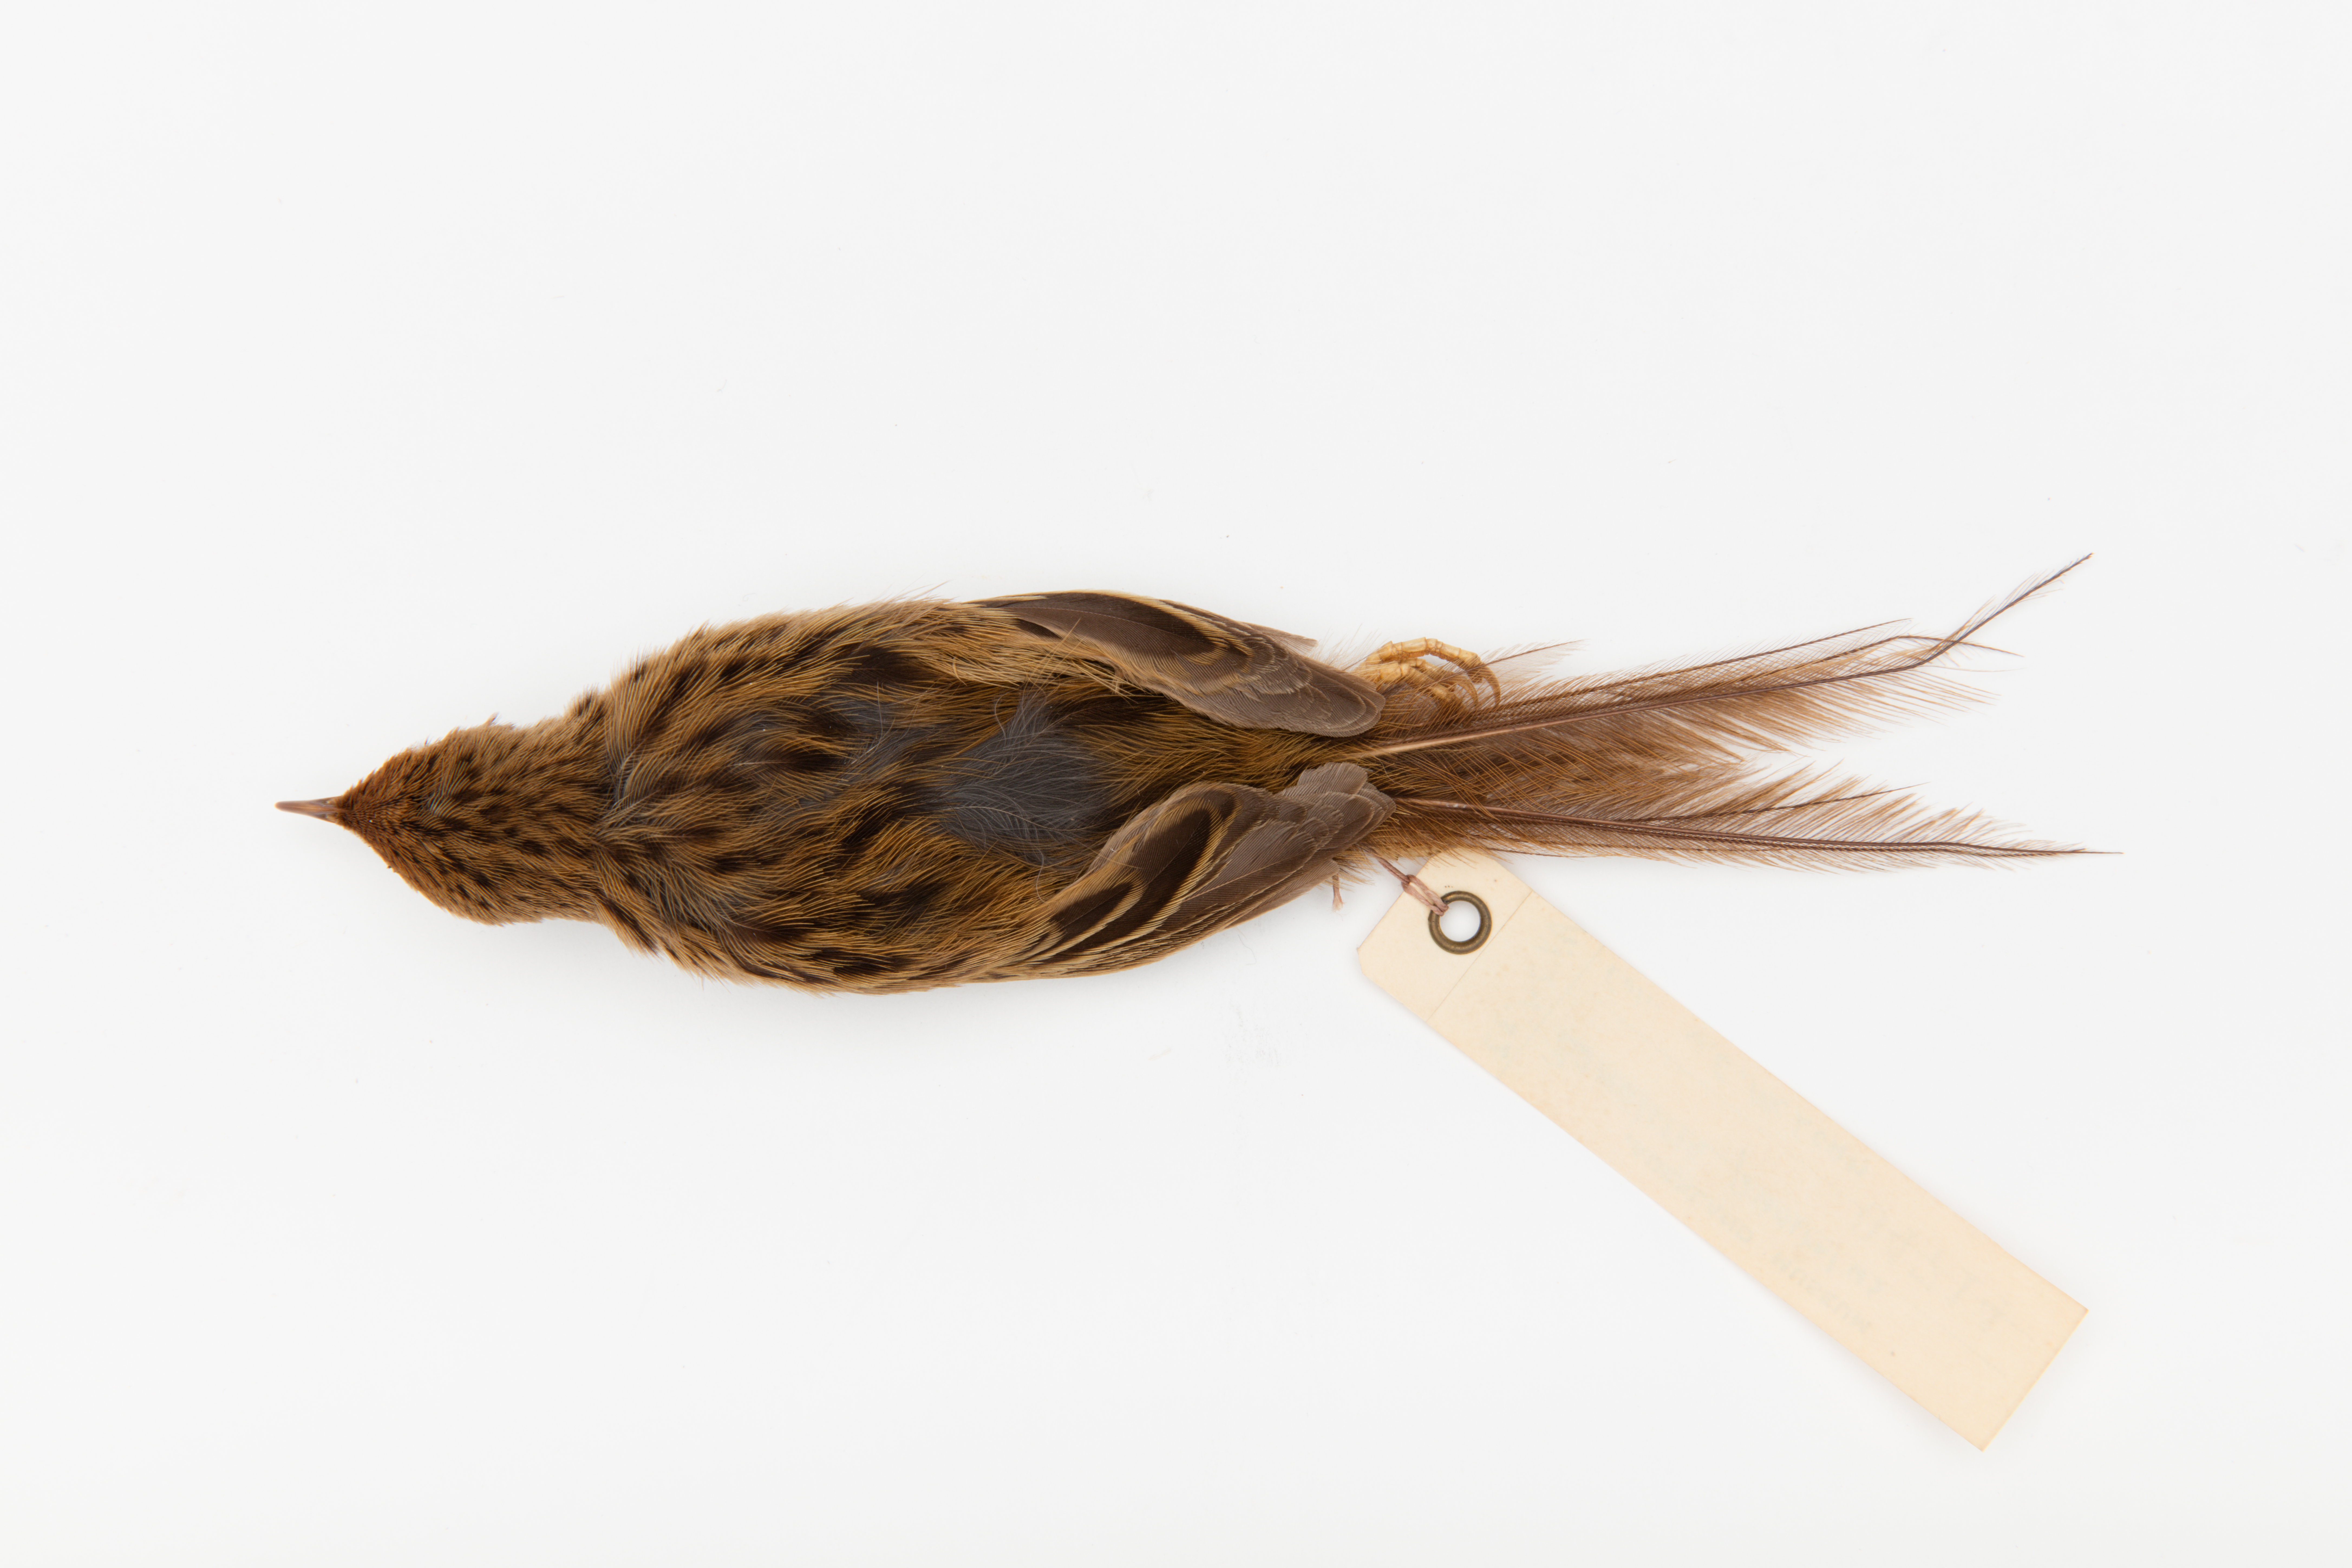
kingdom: Animalia
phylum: Chordata
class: Aves
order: Passeriformes
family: Locustellidae
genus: Megalurus
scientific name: Megalurus punctatus
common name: New zealand fernbird
